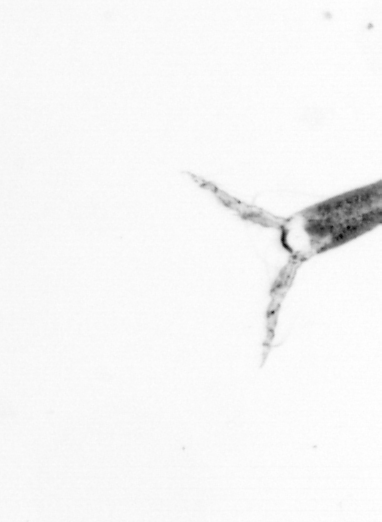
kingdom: Animalia
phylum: Arthropoda
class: Copepoda
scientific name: Copepoda
